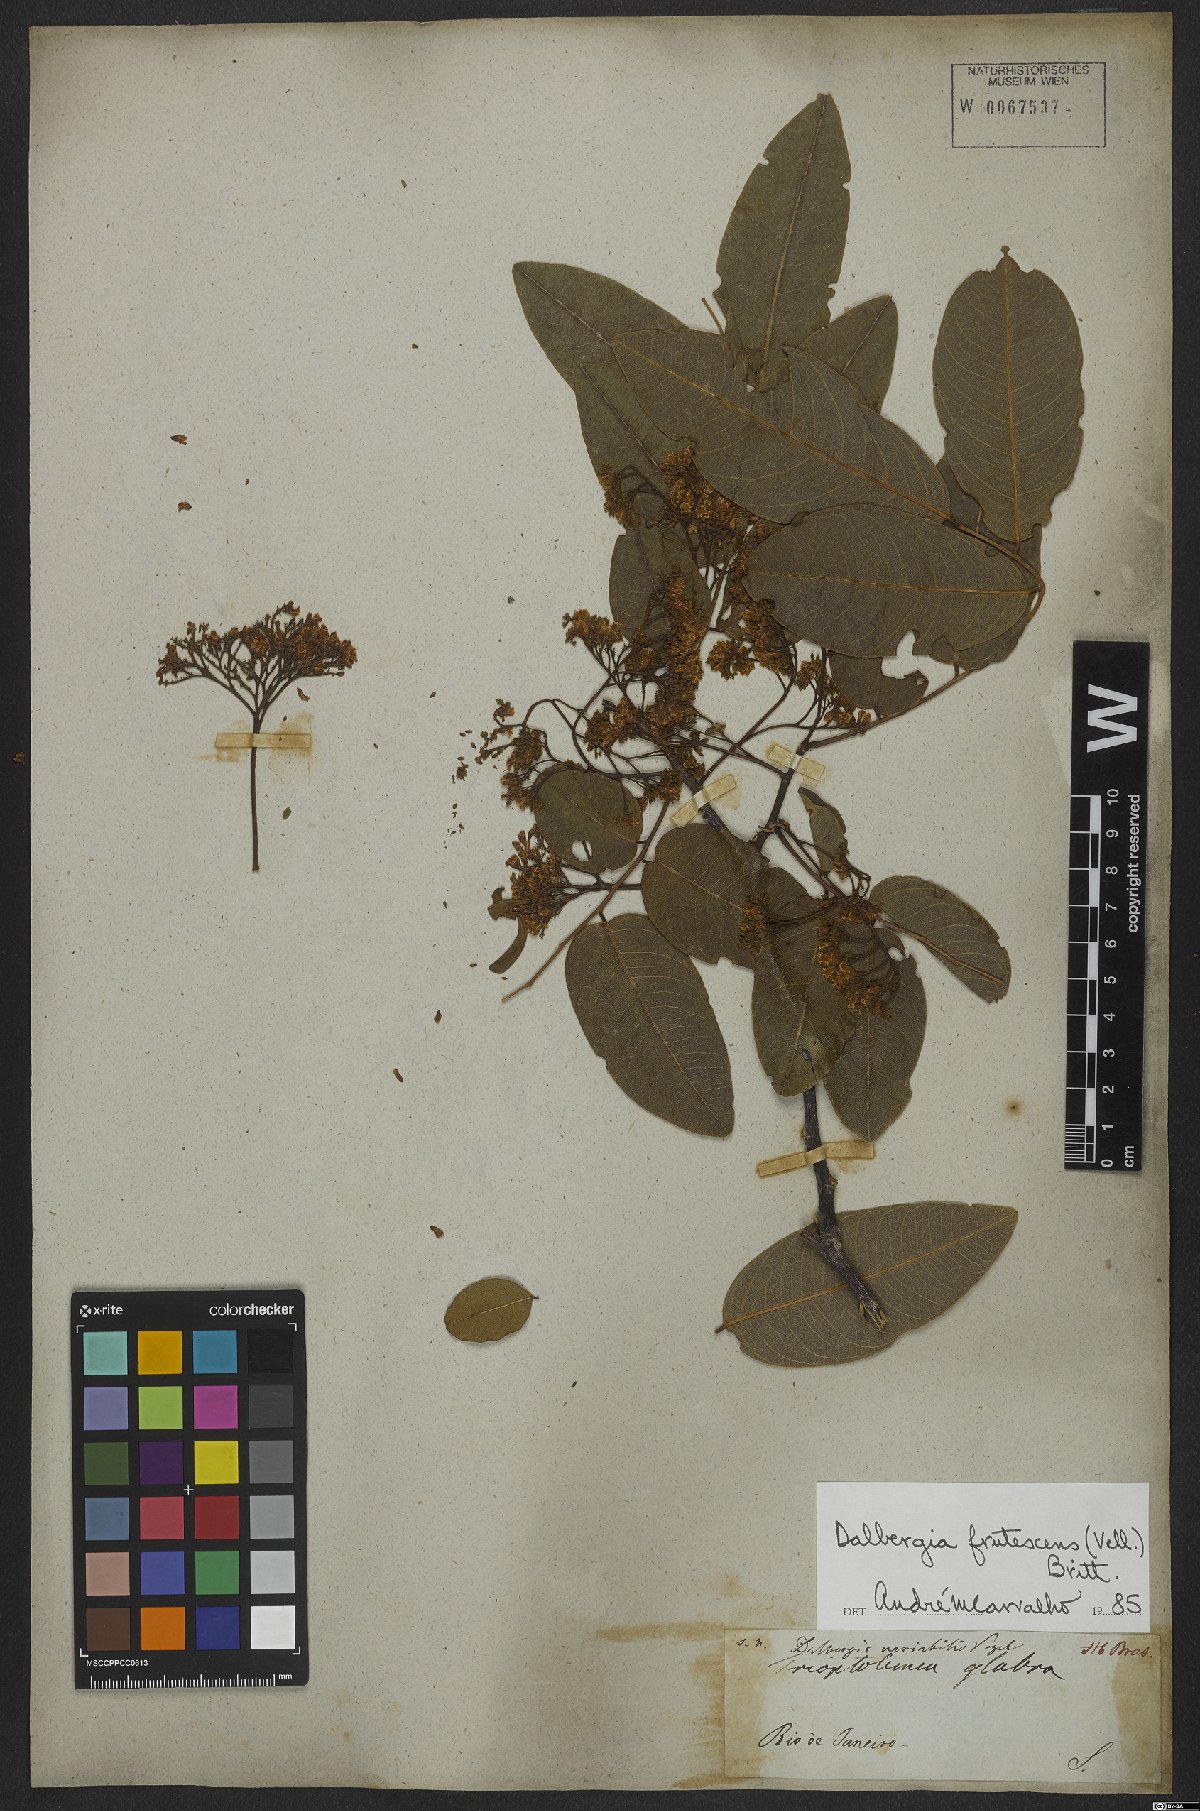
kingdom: Plantae
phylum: Tracheophyta
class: Magnoliopsida
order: Fabales
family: Fabaceae
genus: Dalbergia
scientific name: Dalbergia frutescens
